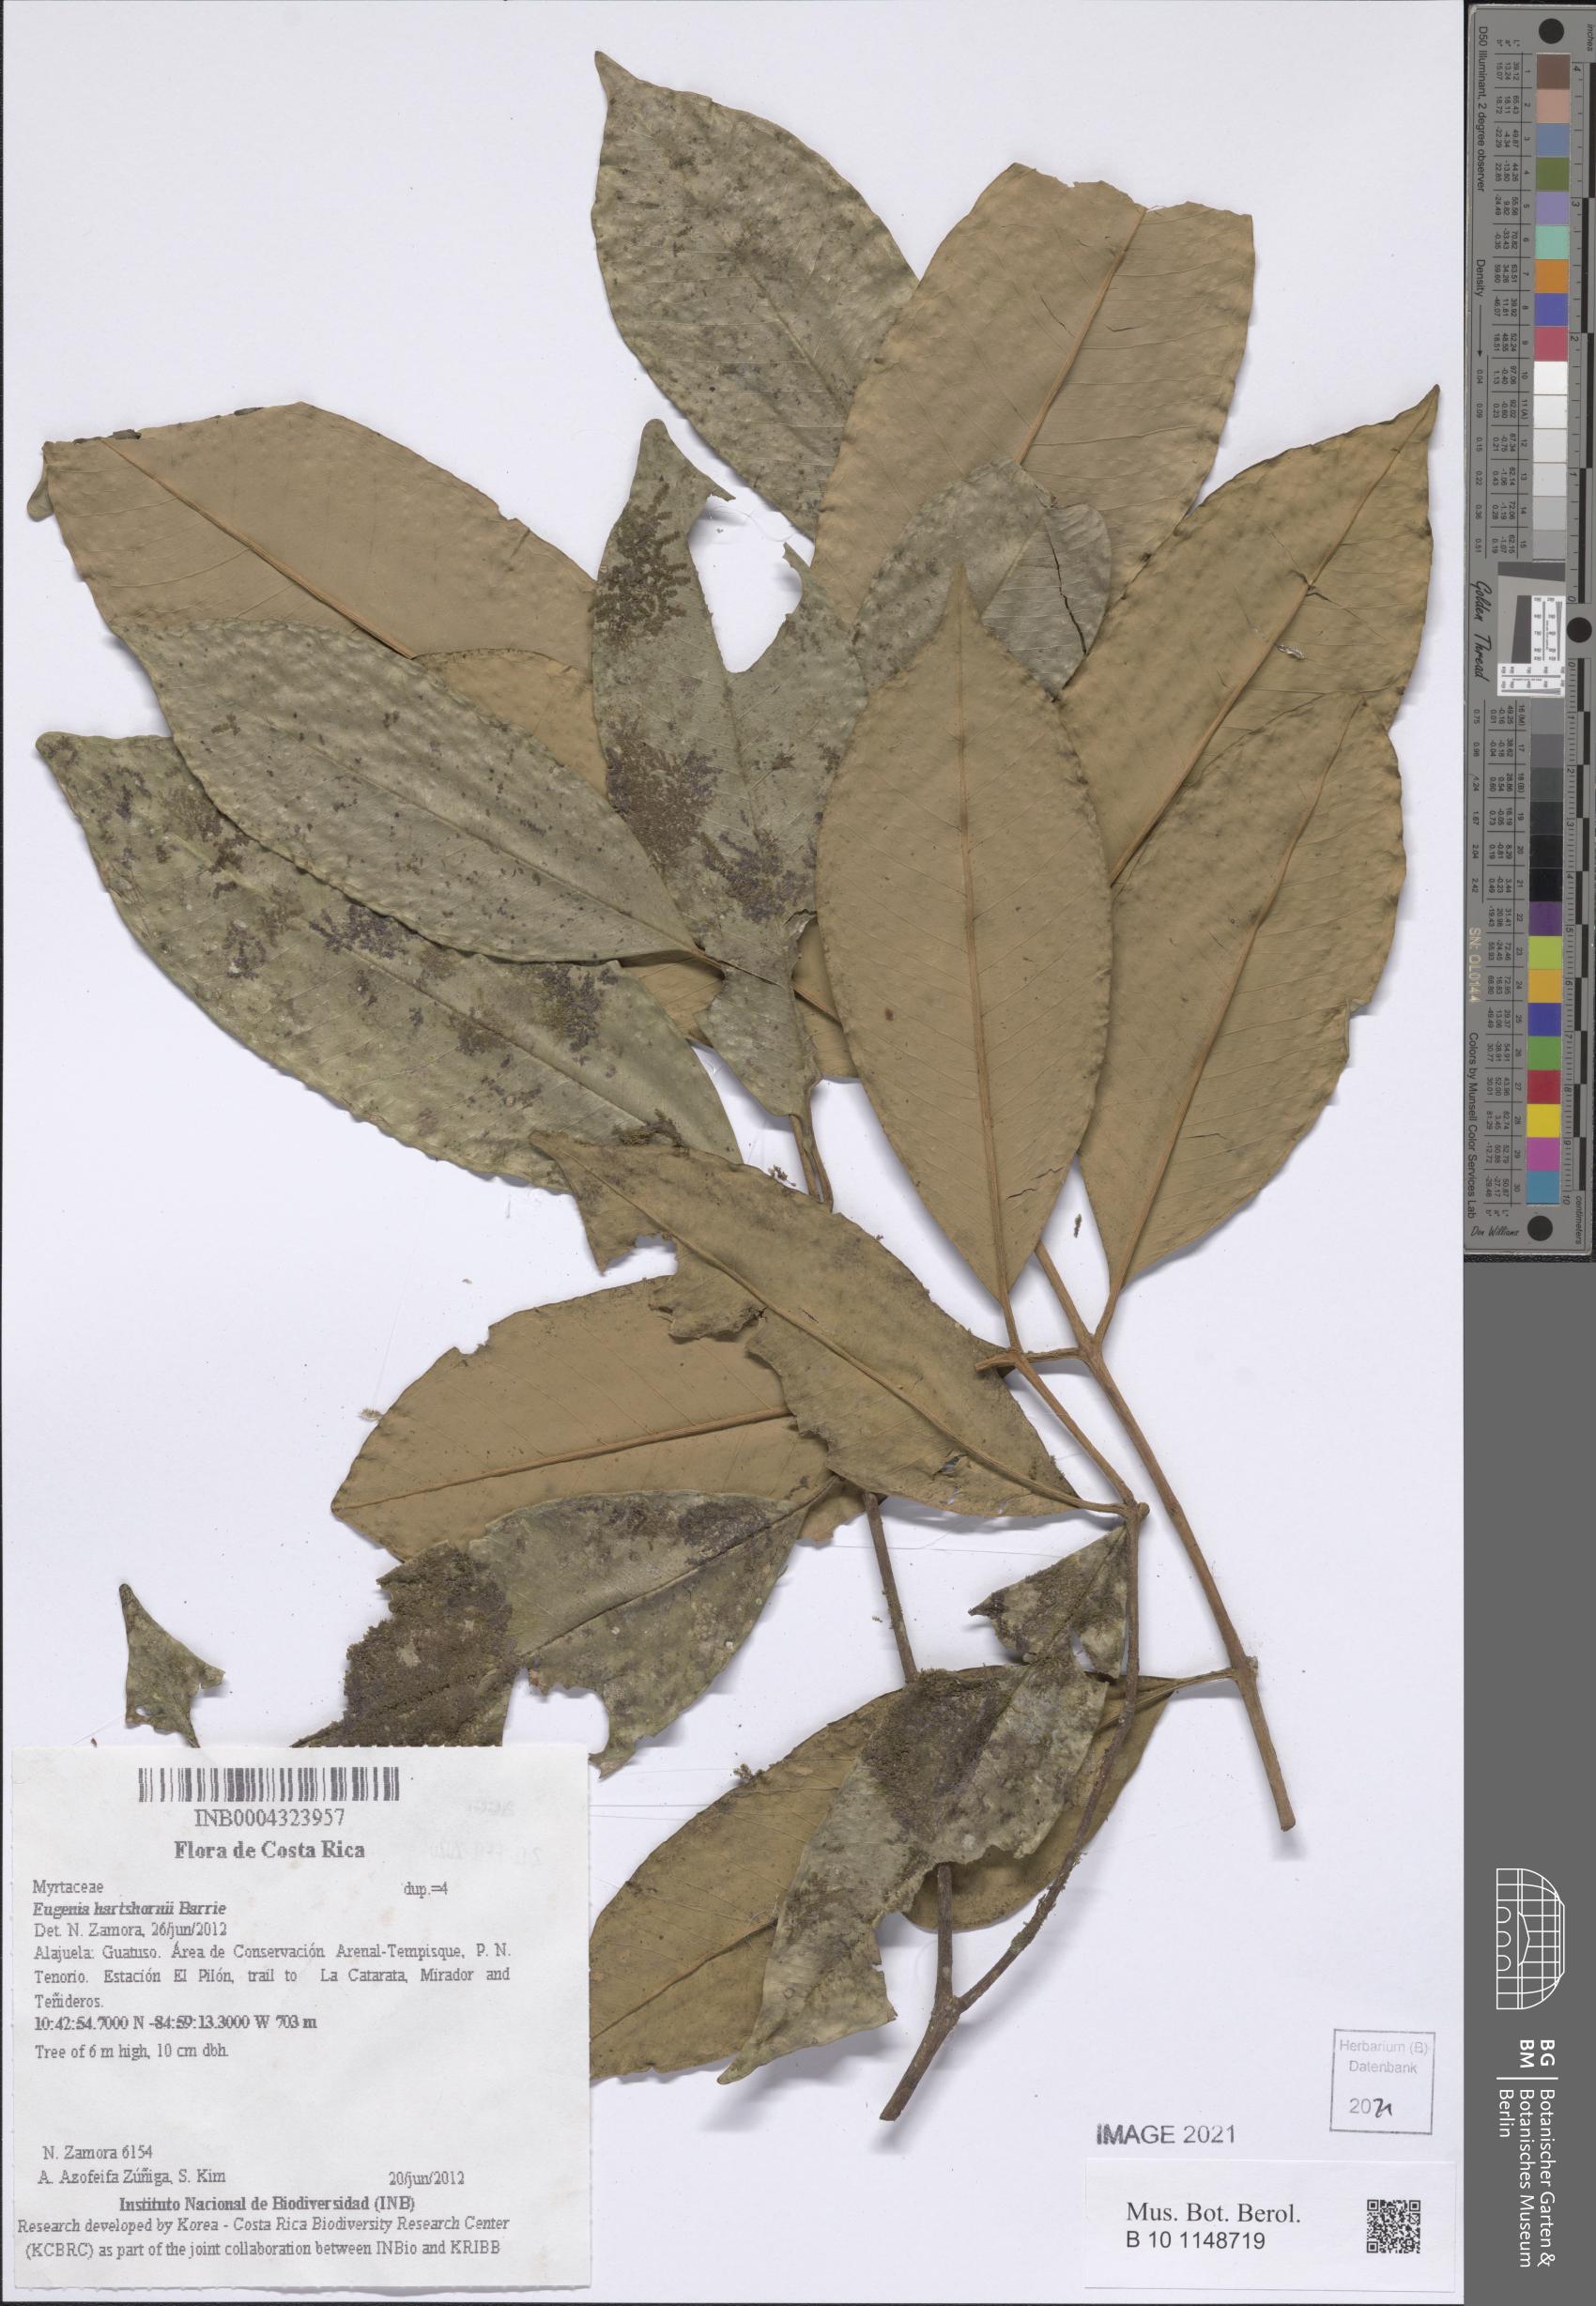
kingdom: Plantae
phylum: Tracheophyta
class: Magnoliopsida
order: Myrtales
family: Myrtaceae
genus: Eugenia
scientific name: Eugenia hartshornii
